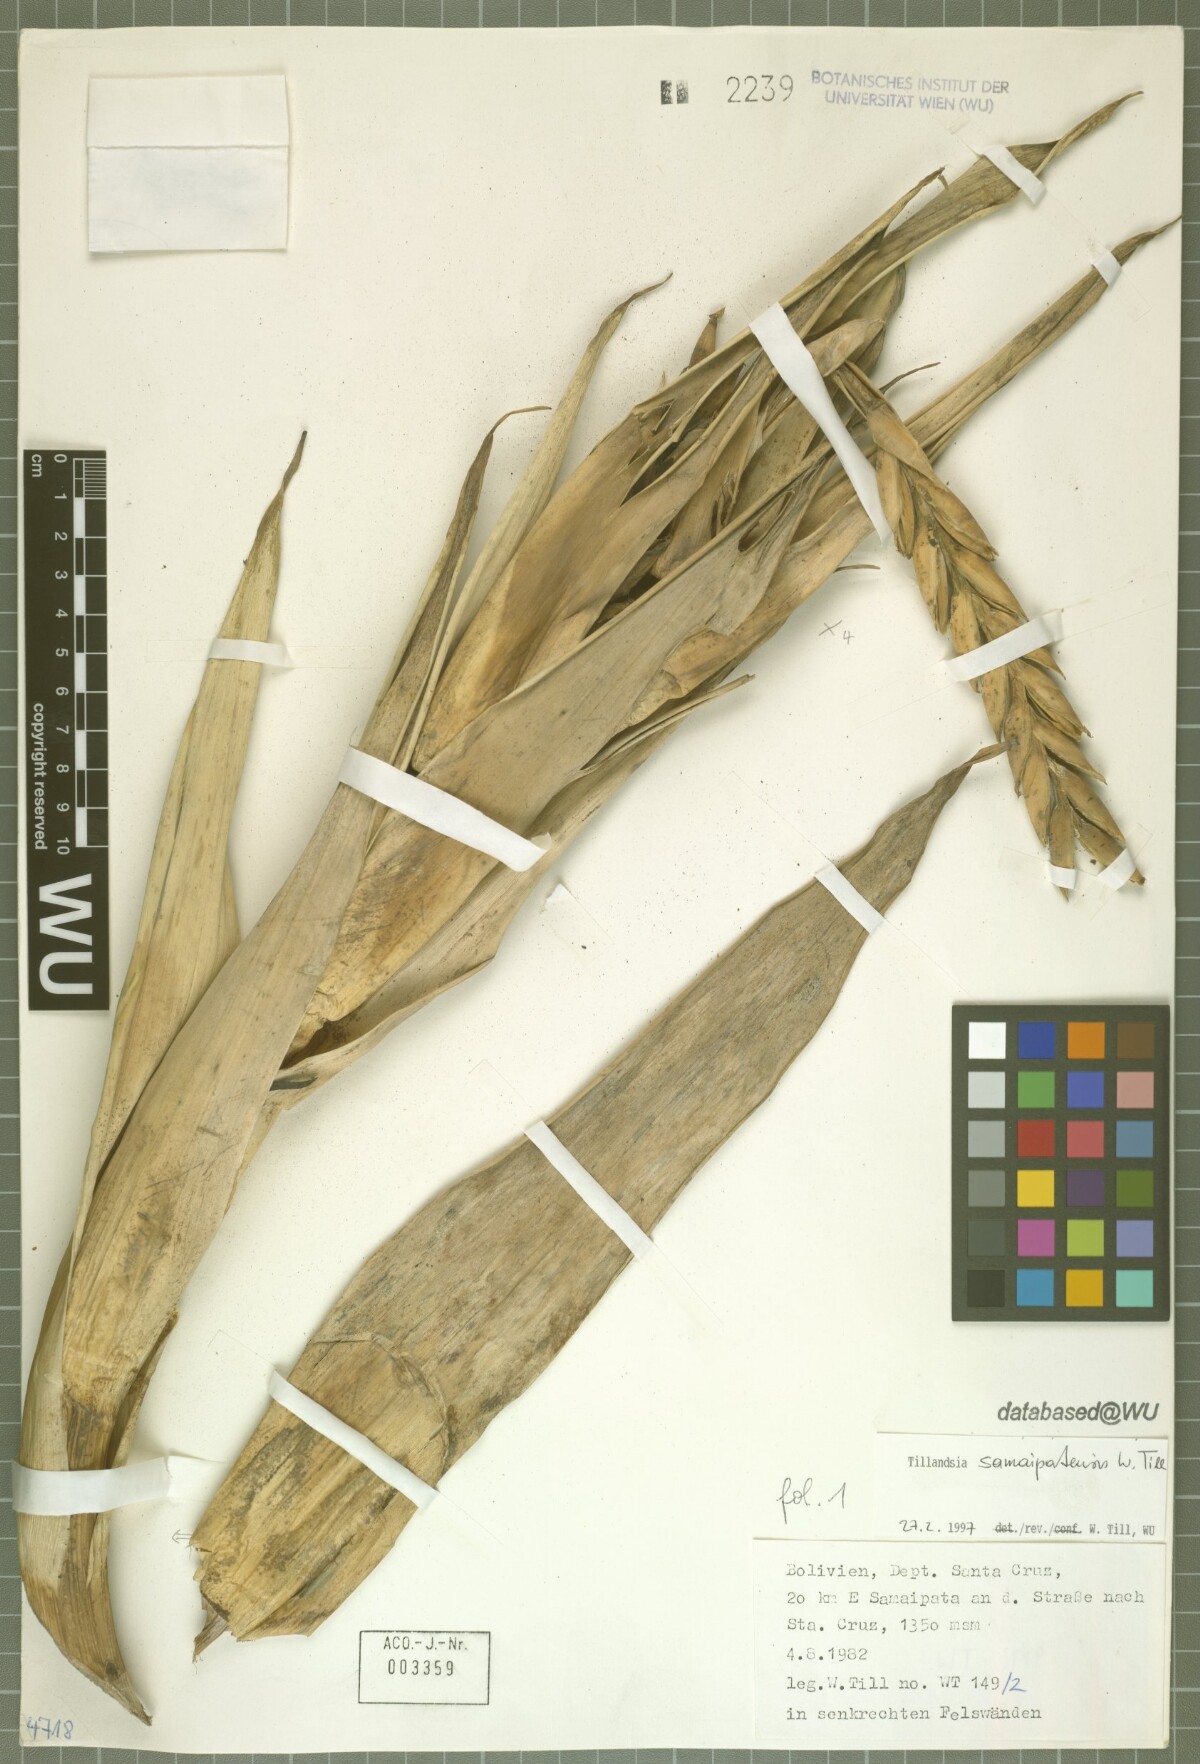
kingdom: Plantae
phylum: Tracheophyta
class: Liliopsida
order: Poales
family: Bromeliaceae
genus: Tillandsia
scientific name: Tillandsia samaipatensis
